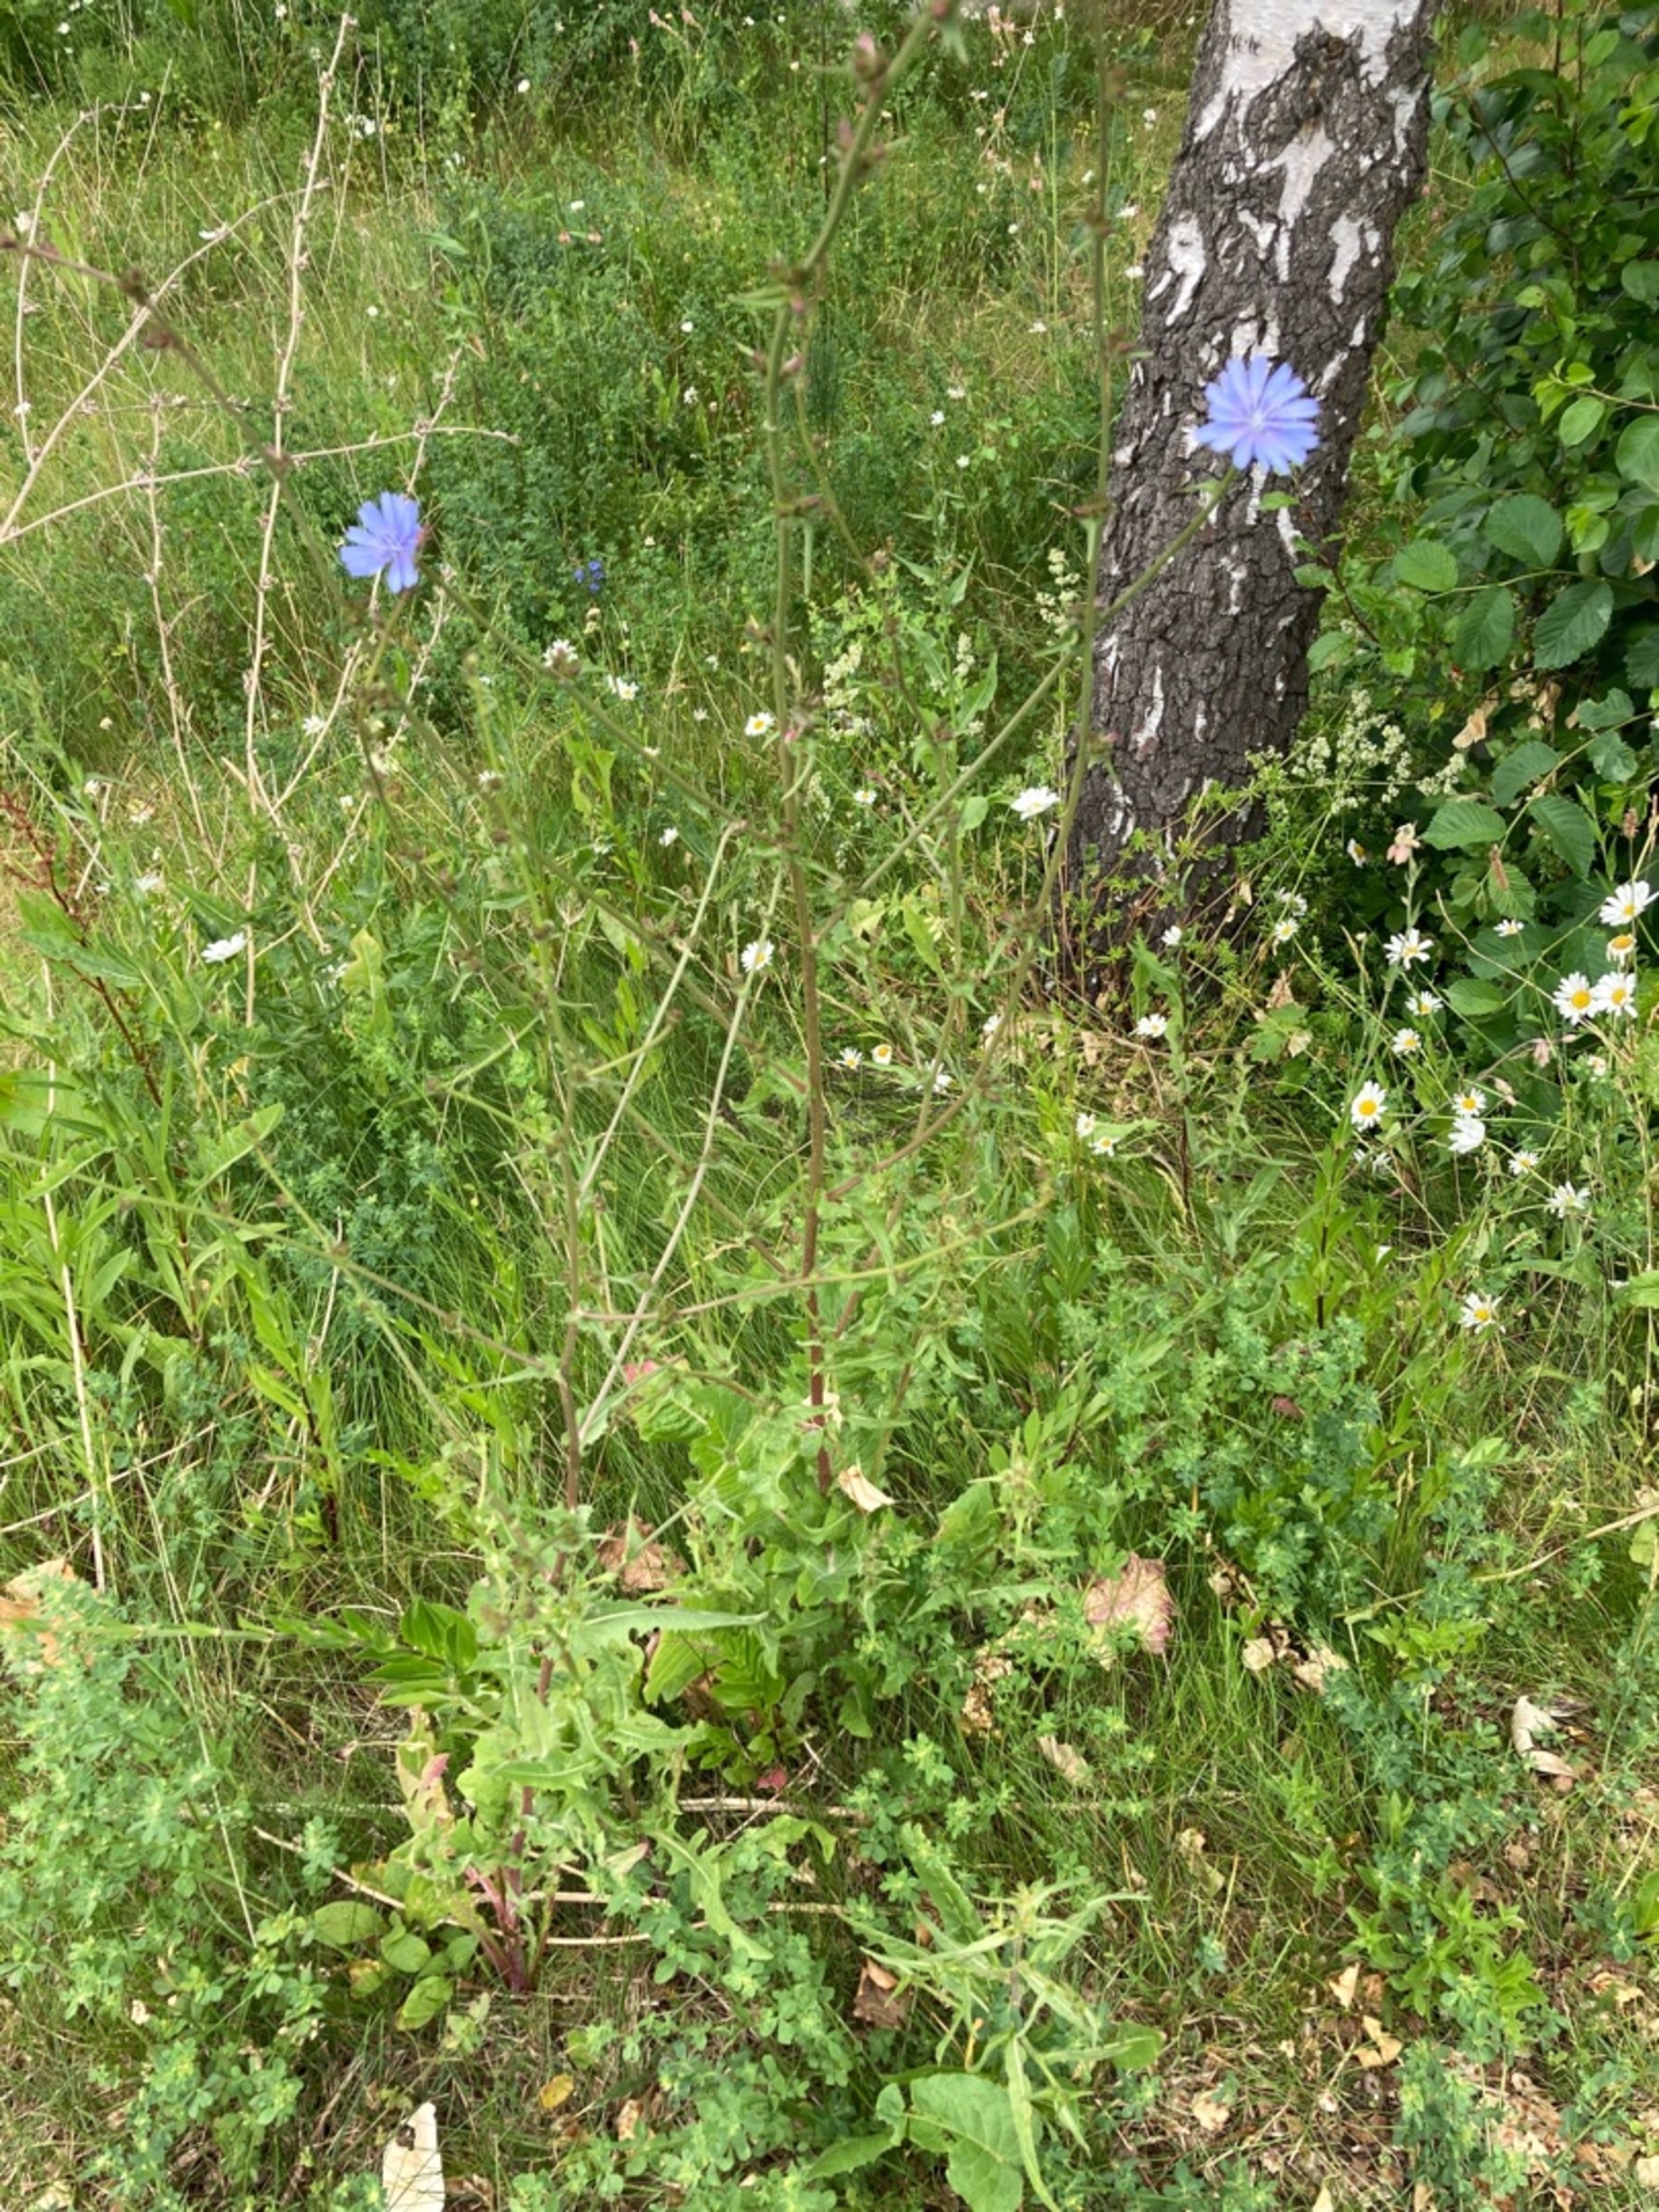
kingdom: Plantae
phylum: Tracheophyta
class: Magnoliopsida
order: Asterales
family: Asteraceae
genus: Cichorium
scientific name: Cichorium intybus
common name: Cikorie
